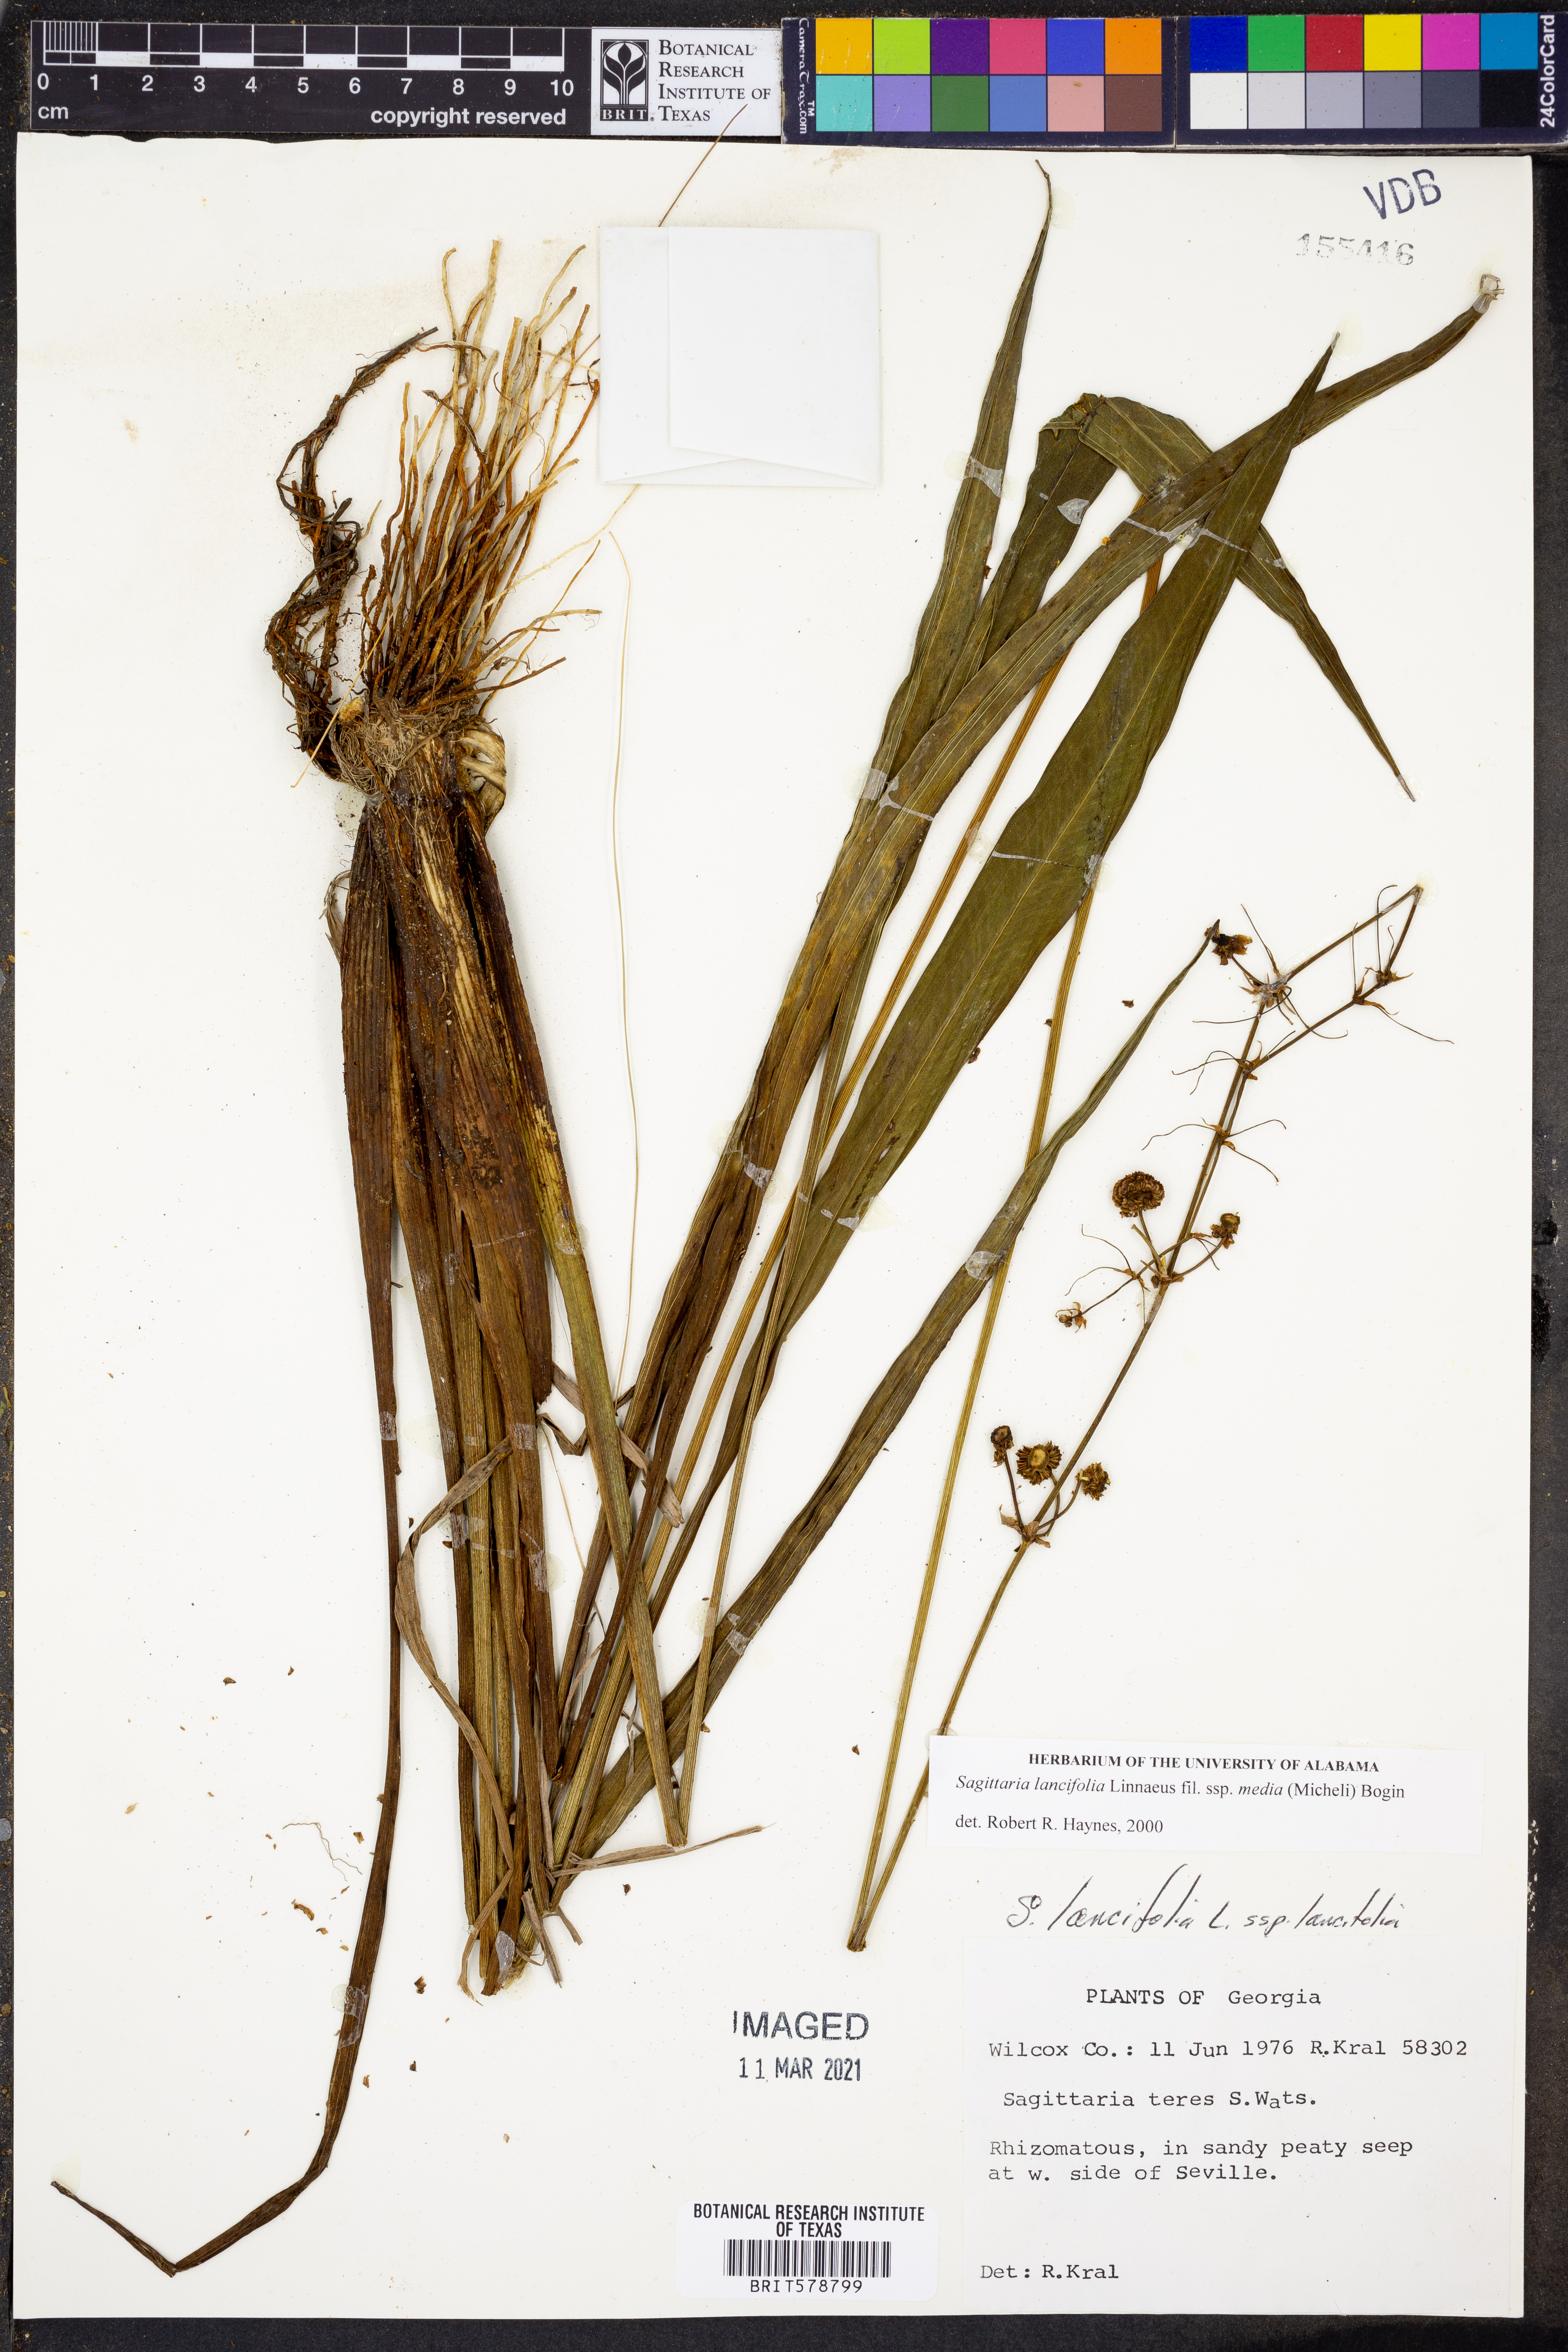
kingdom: Plantae
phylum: Tracheophyta
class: Liliopsida
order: Alismatales
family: Alismataceae
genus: Echinodorus
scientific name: Echinodorus berteroi
